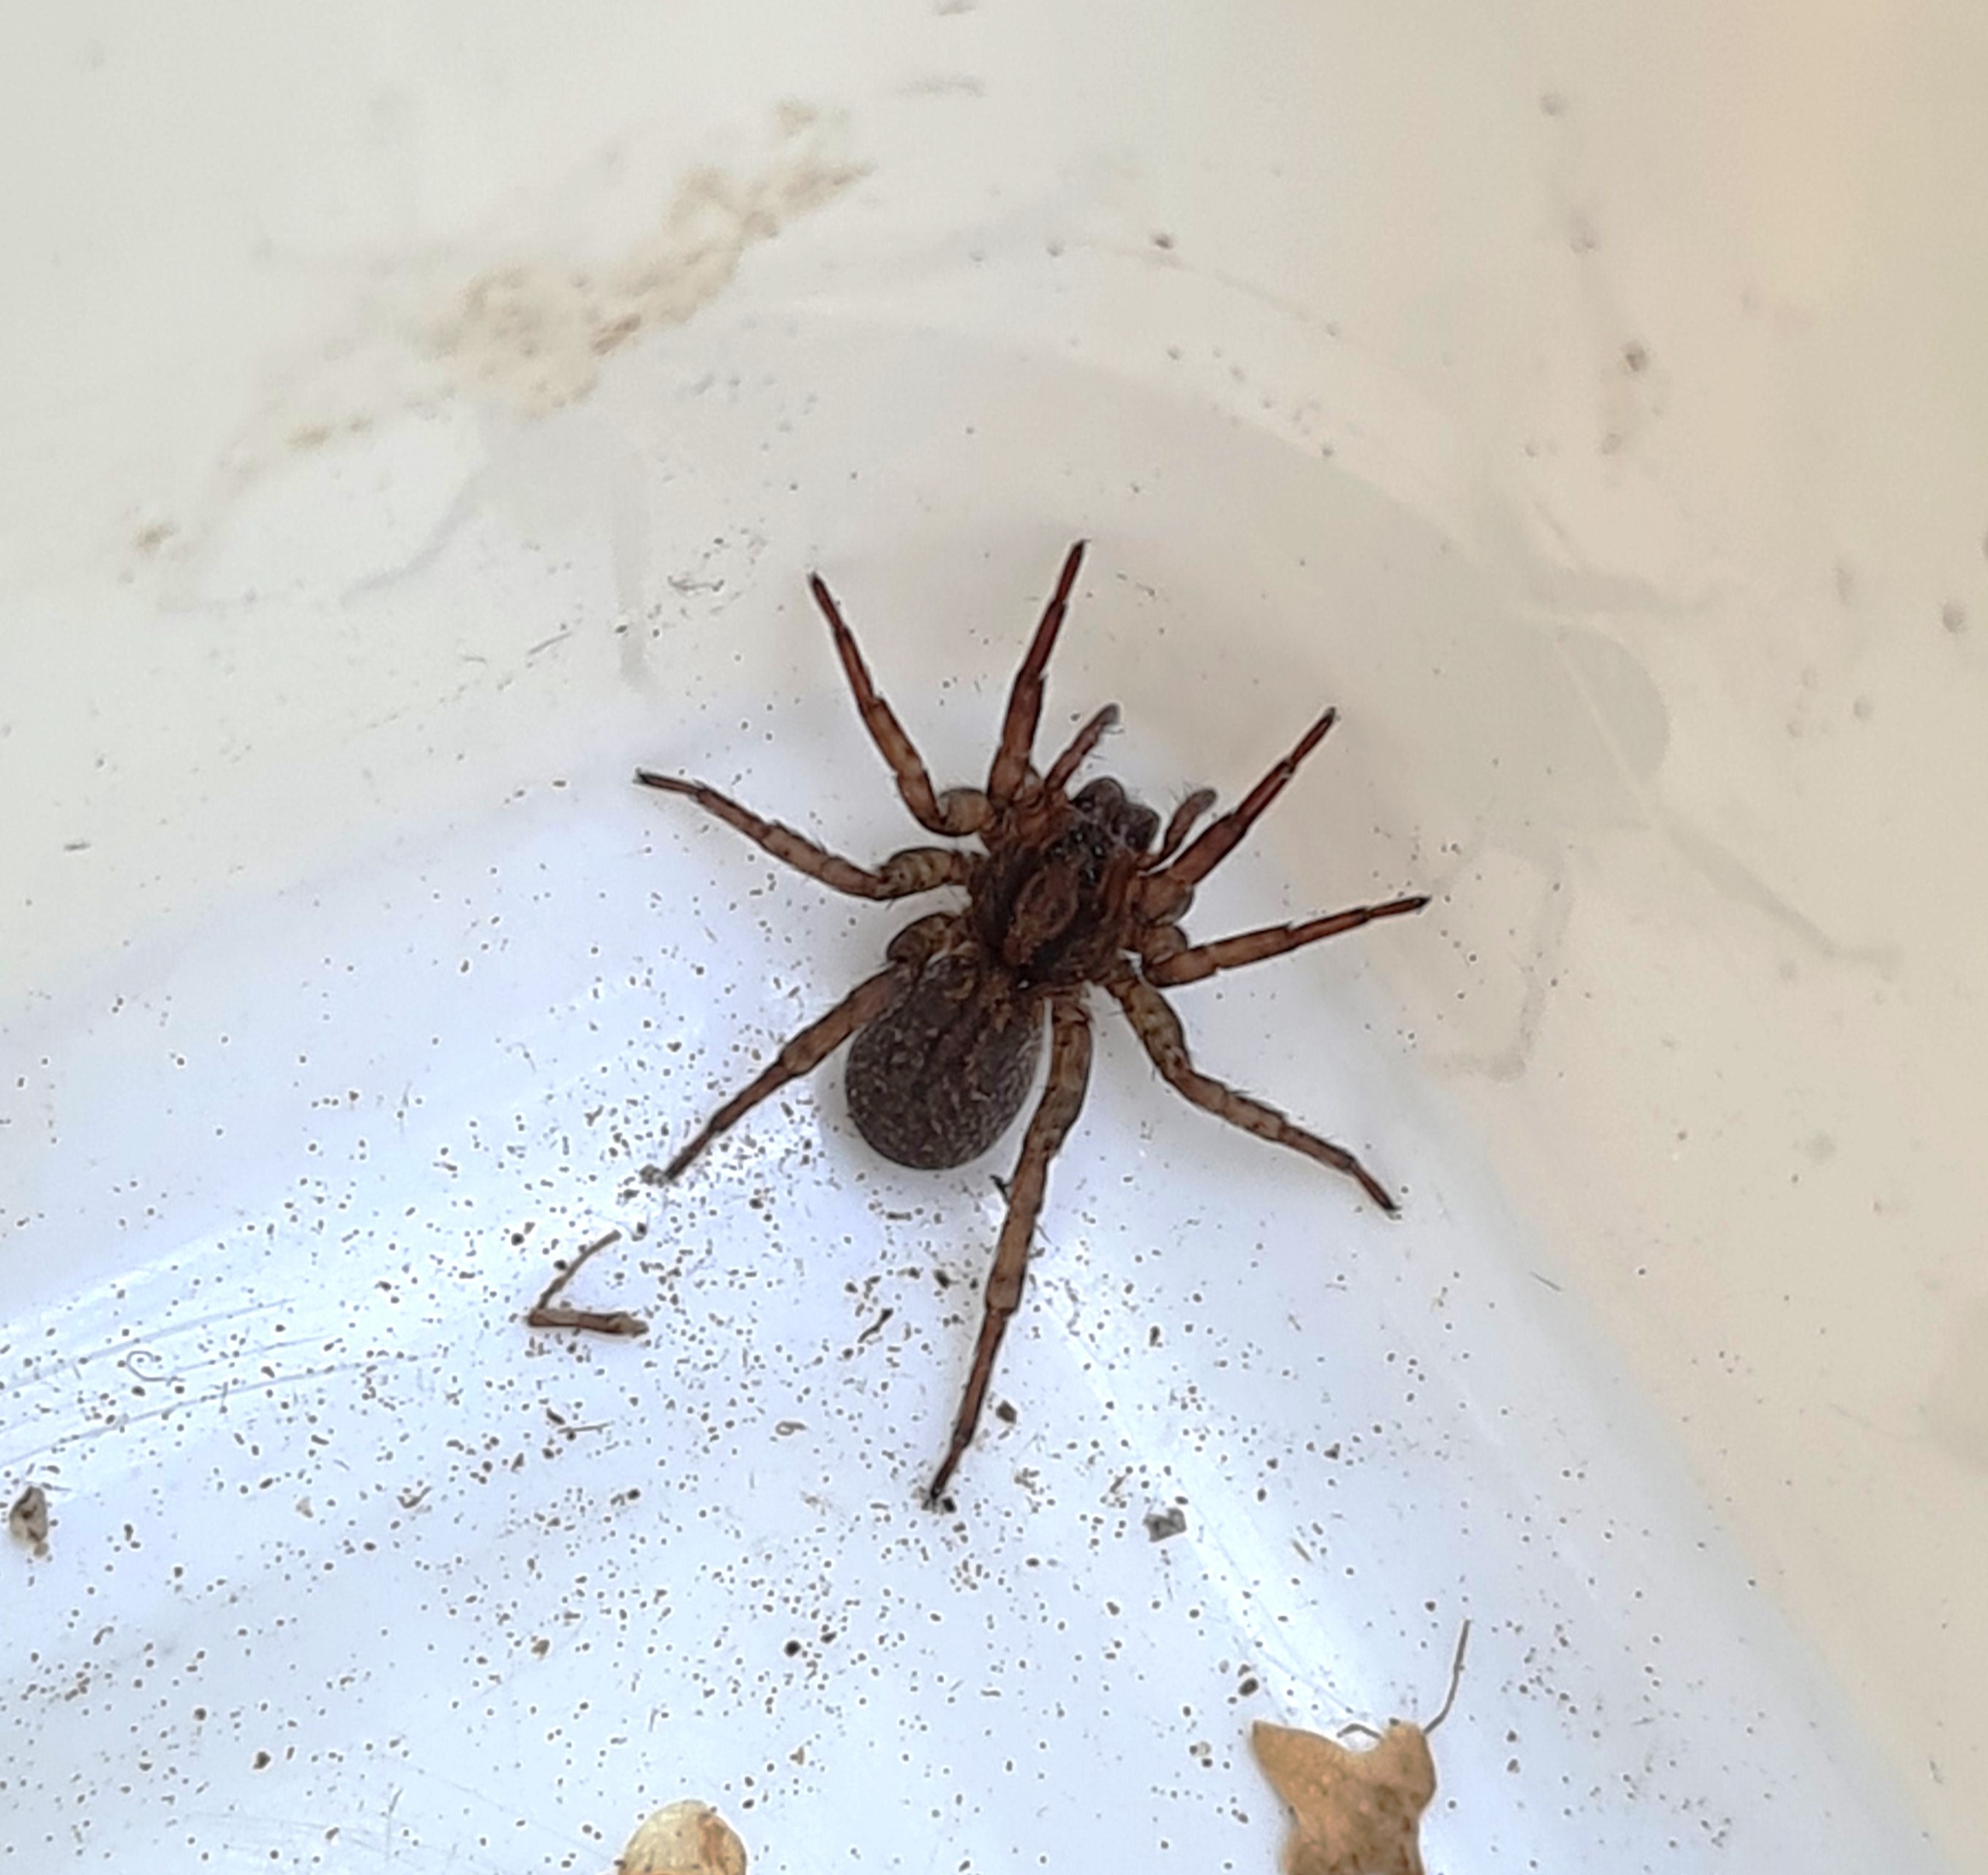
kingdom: Animalia
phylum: Arthropoda
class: Arachnida
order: Araneae
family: Lycosidae
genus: Trochosa
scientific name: Trochosa terricola
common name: Almindelig bjørneedderkop
